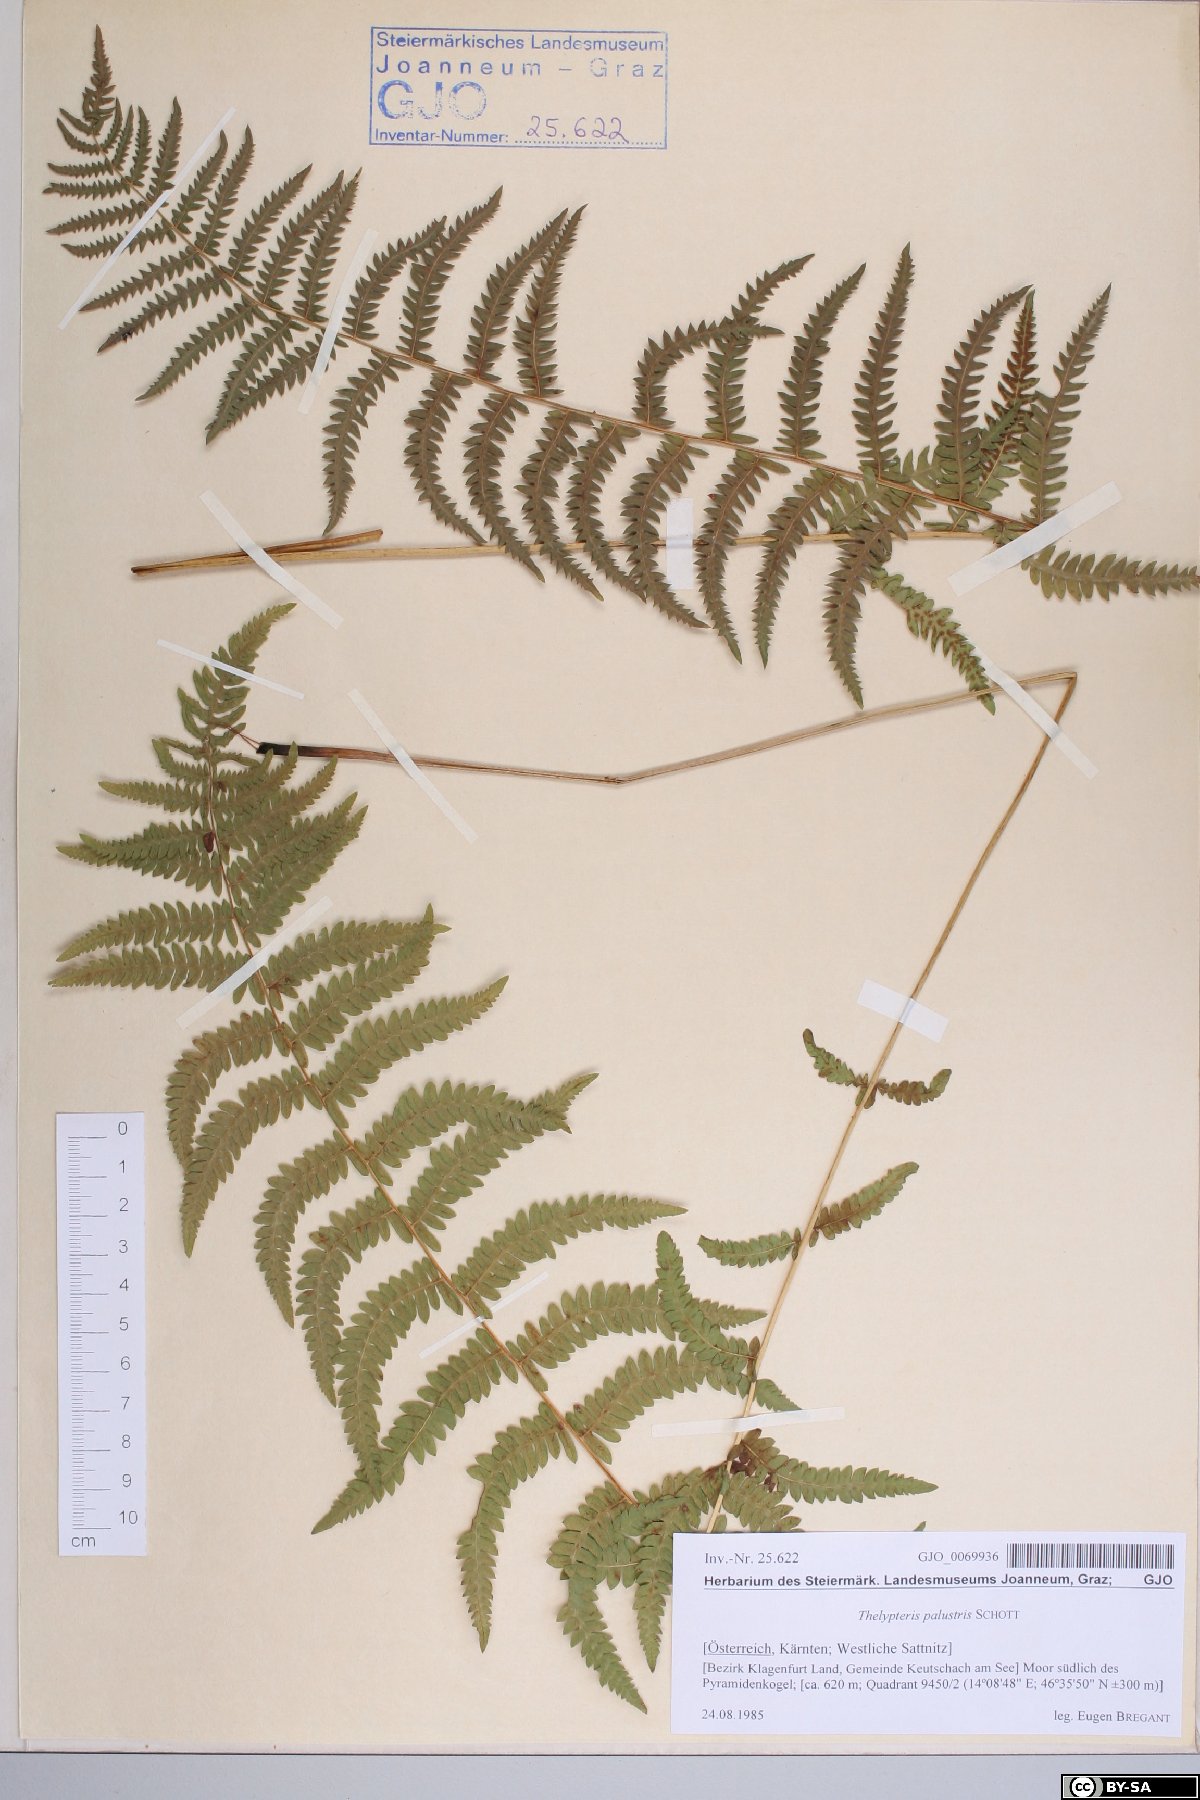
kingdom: Plantae
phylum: Tracheophyta
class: Polypodiopsida
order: Polypodiales
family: Thelypteridaceae
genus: Thelypteris
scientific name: Thelypteris palustris
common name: Marsh fern
